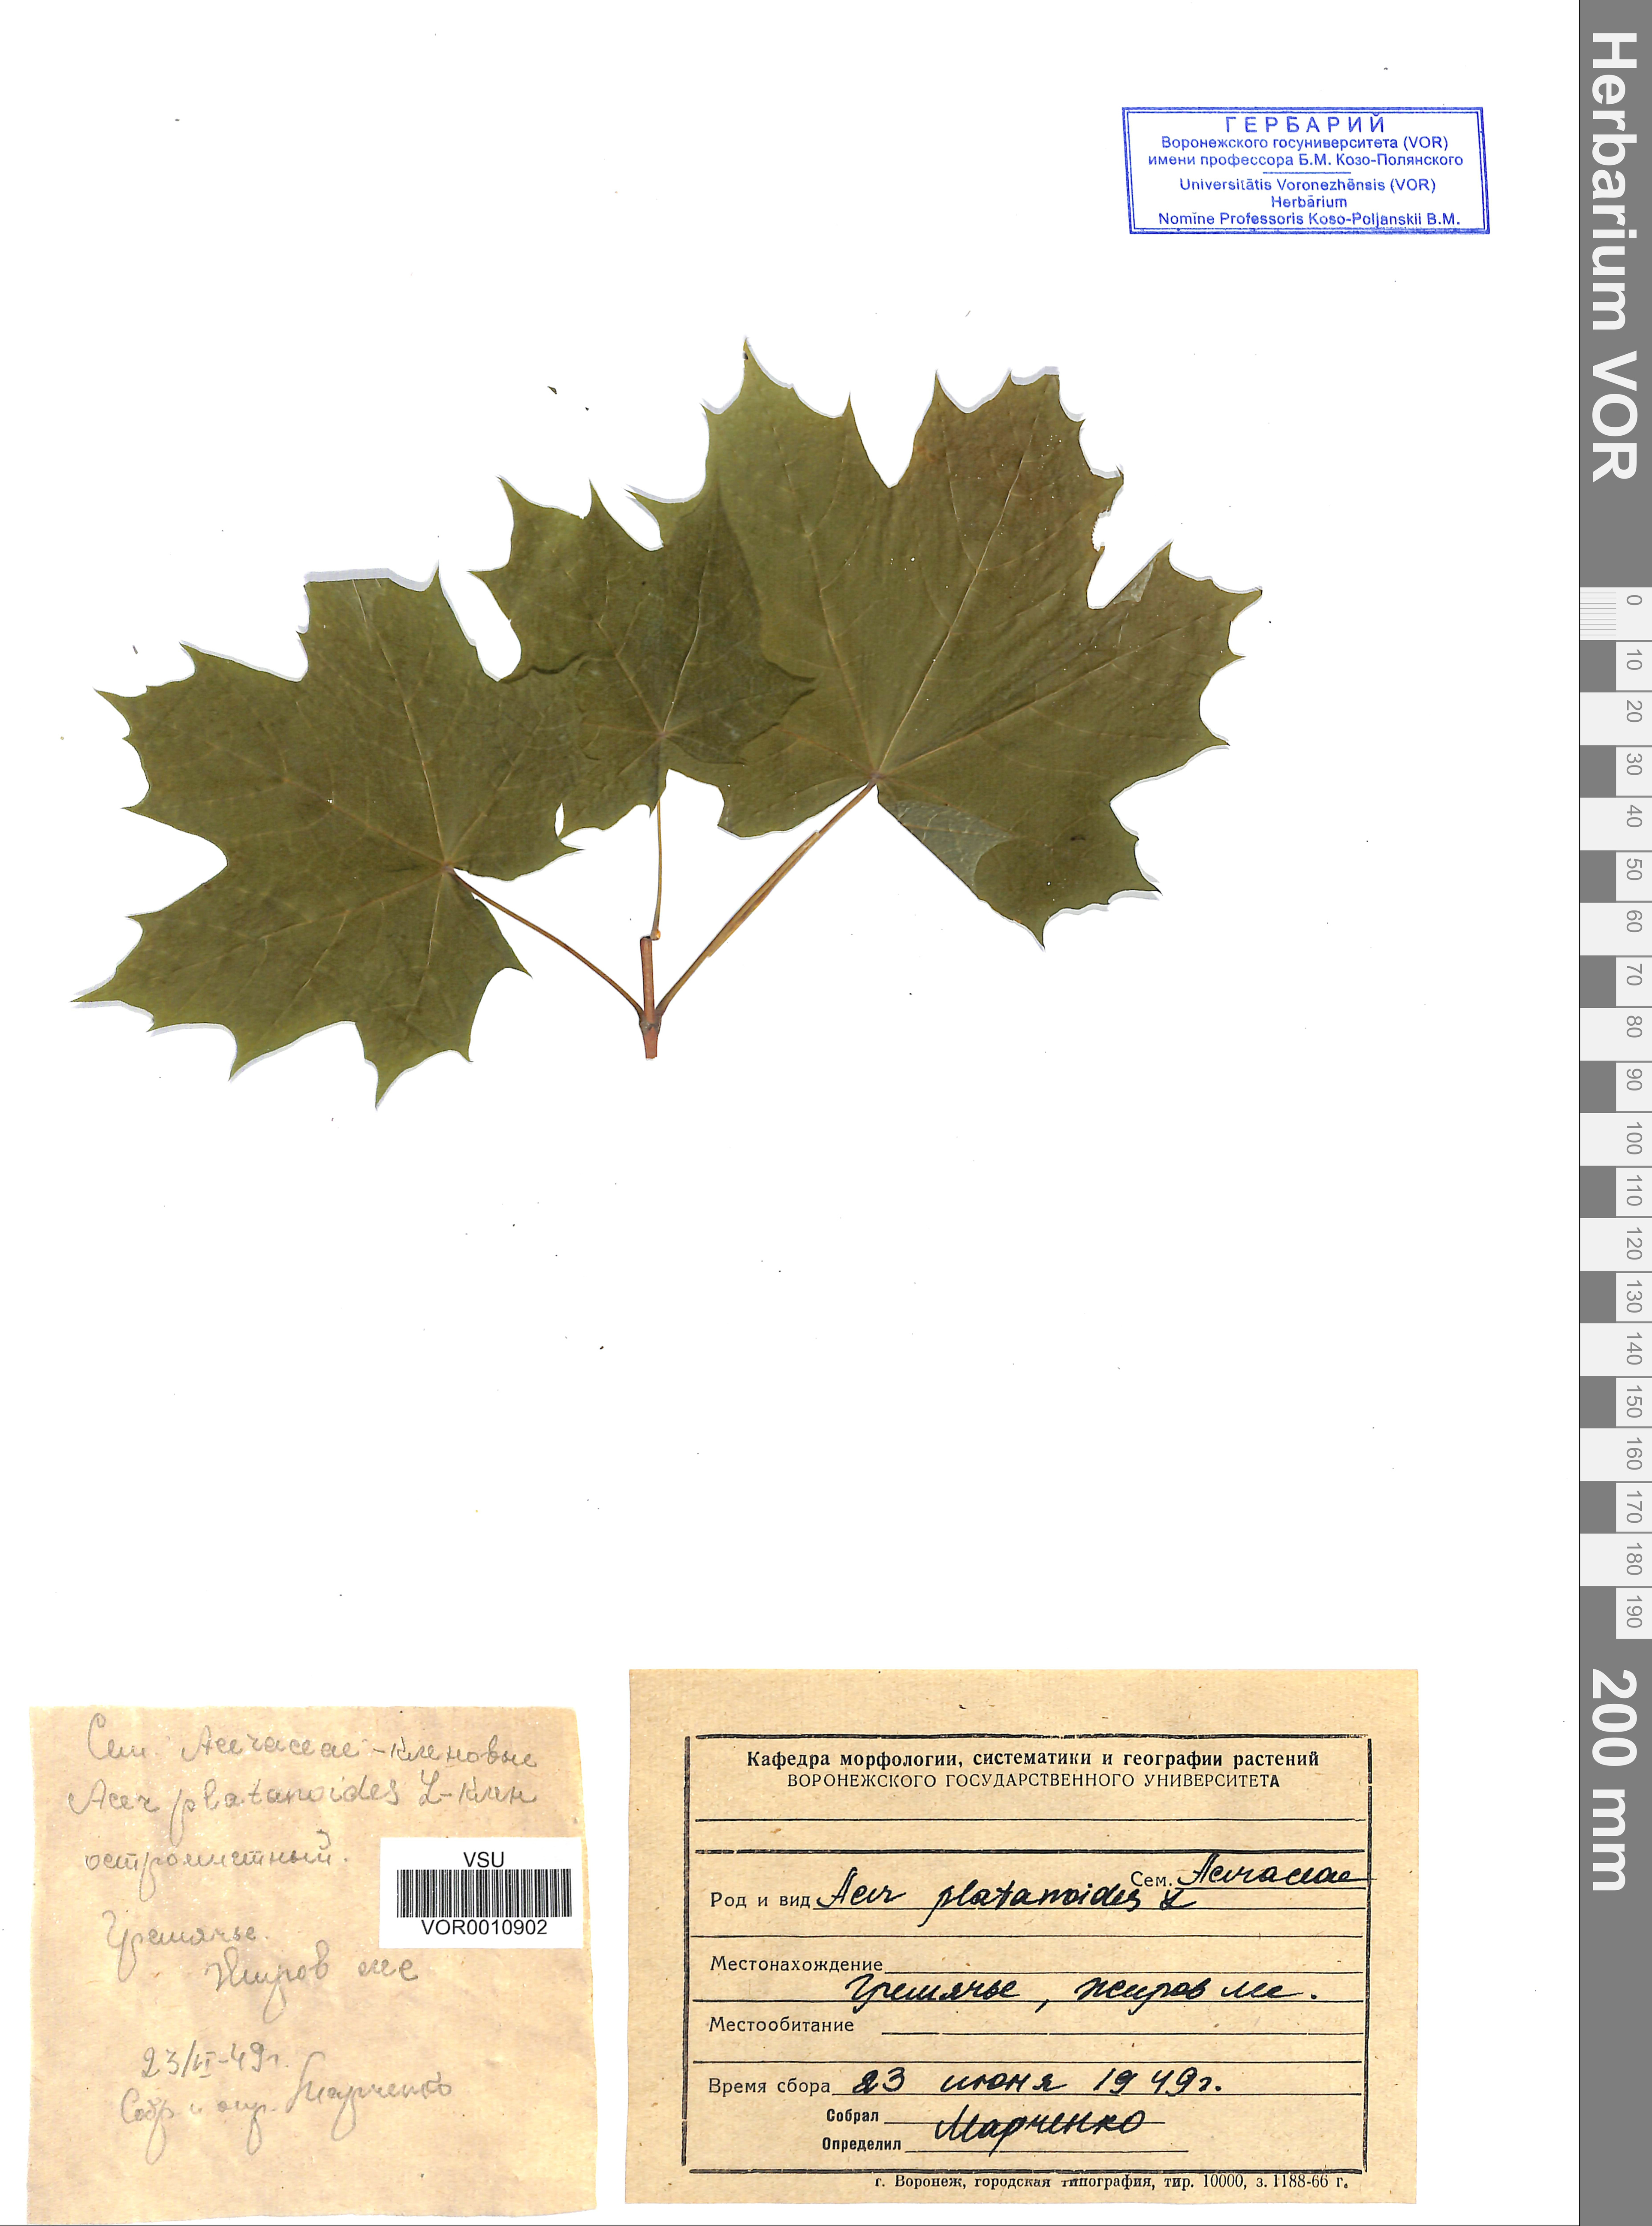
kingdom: Plantae
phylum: Tracheophyta
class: Magnoliopsida
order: Sapindales
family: Sapindaceae
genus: Acer
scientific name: Acer platanoides
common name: Norway maple
